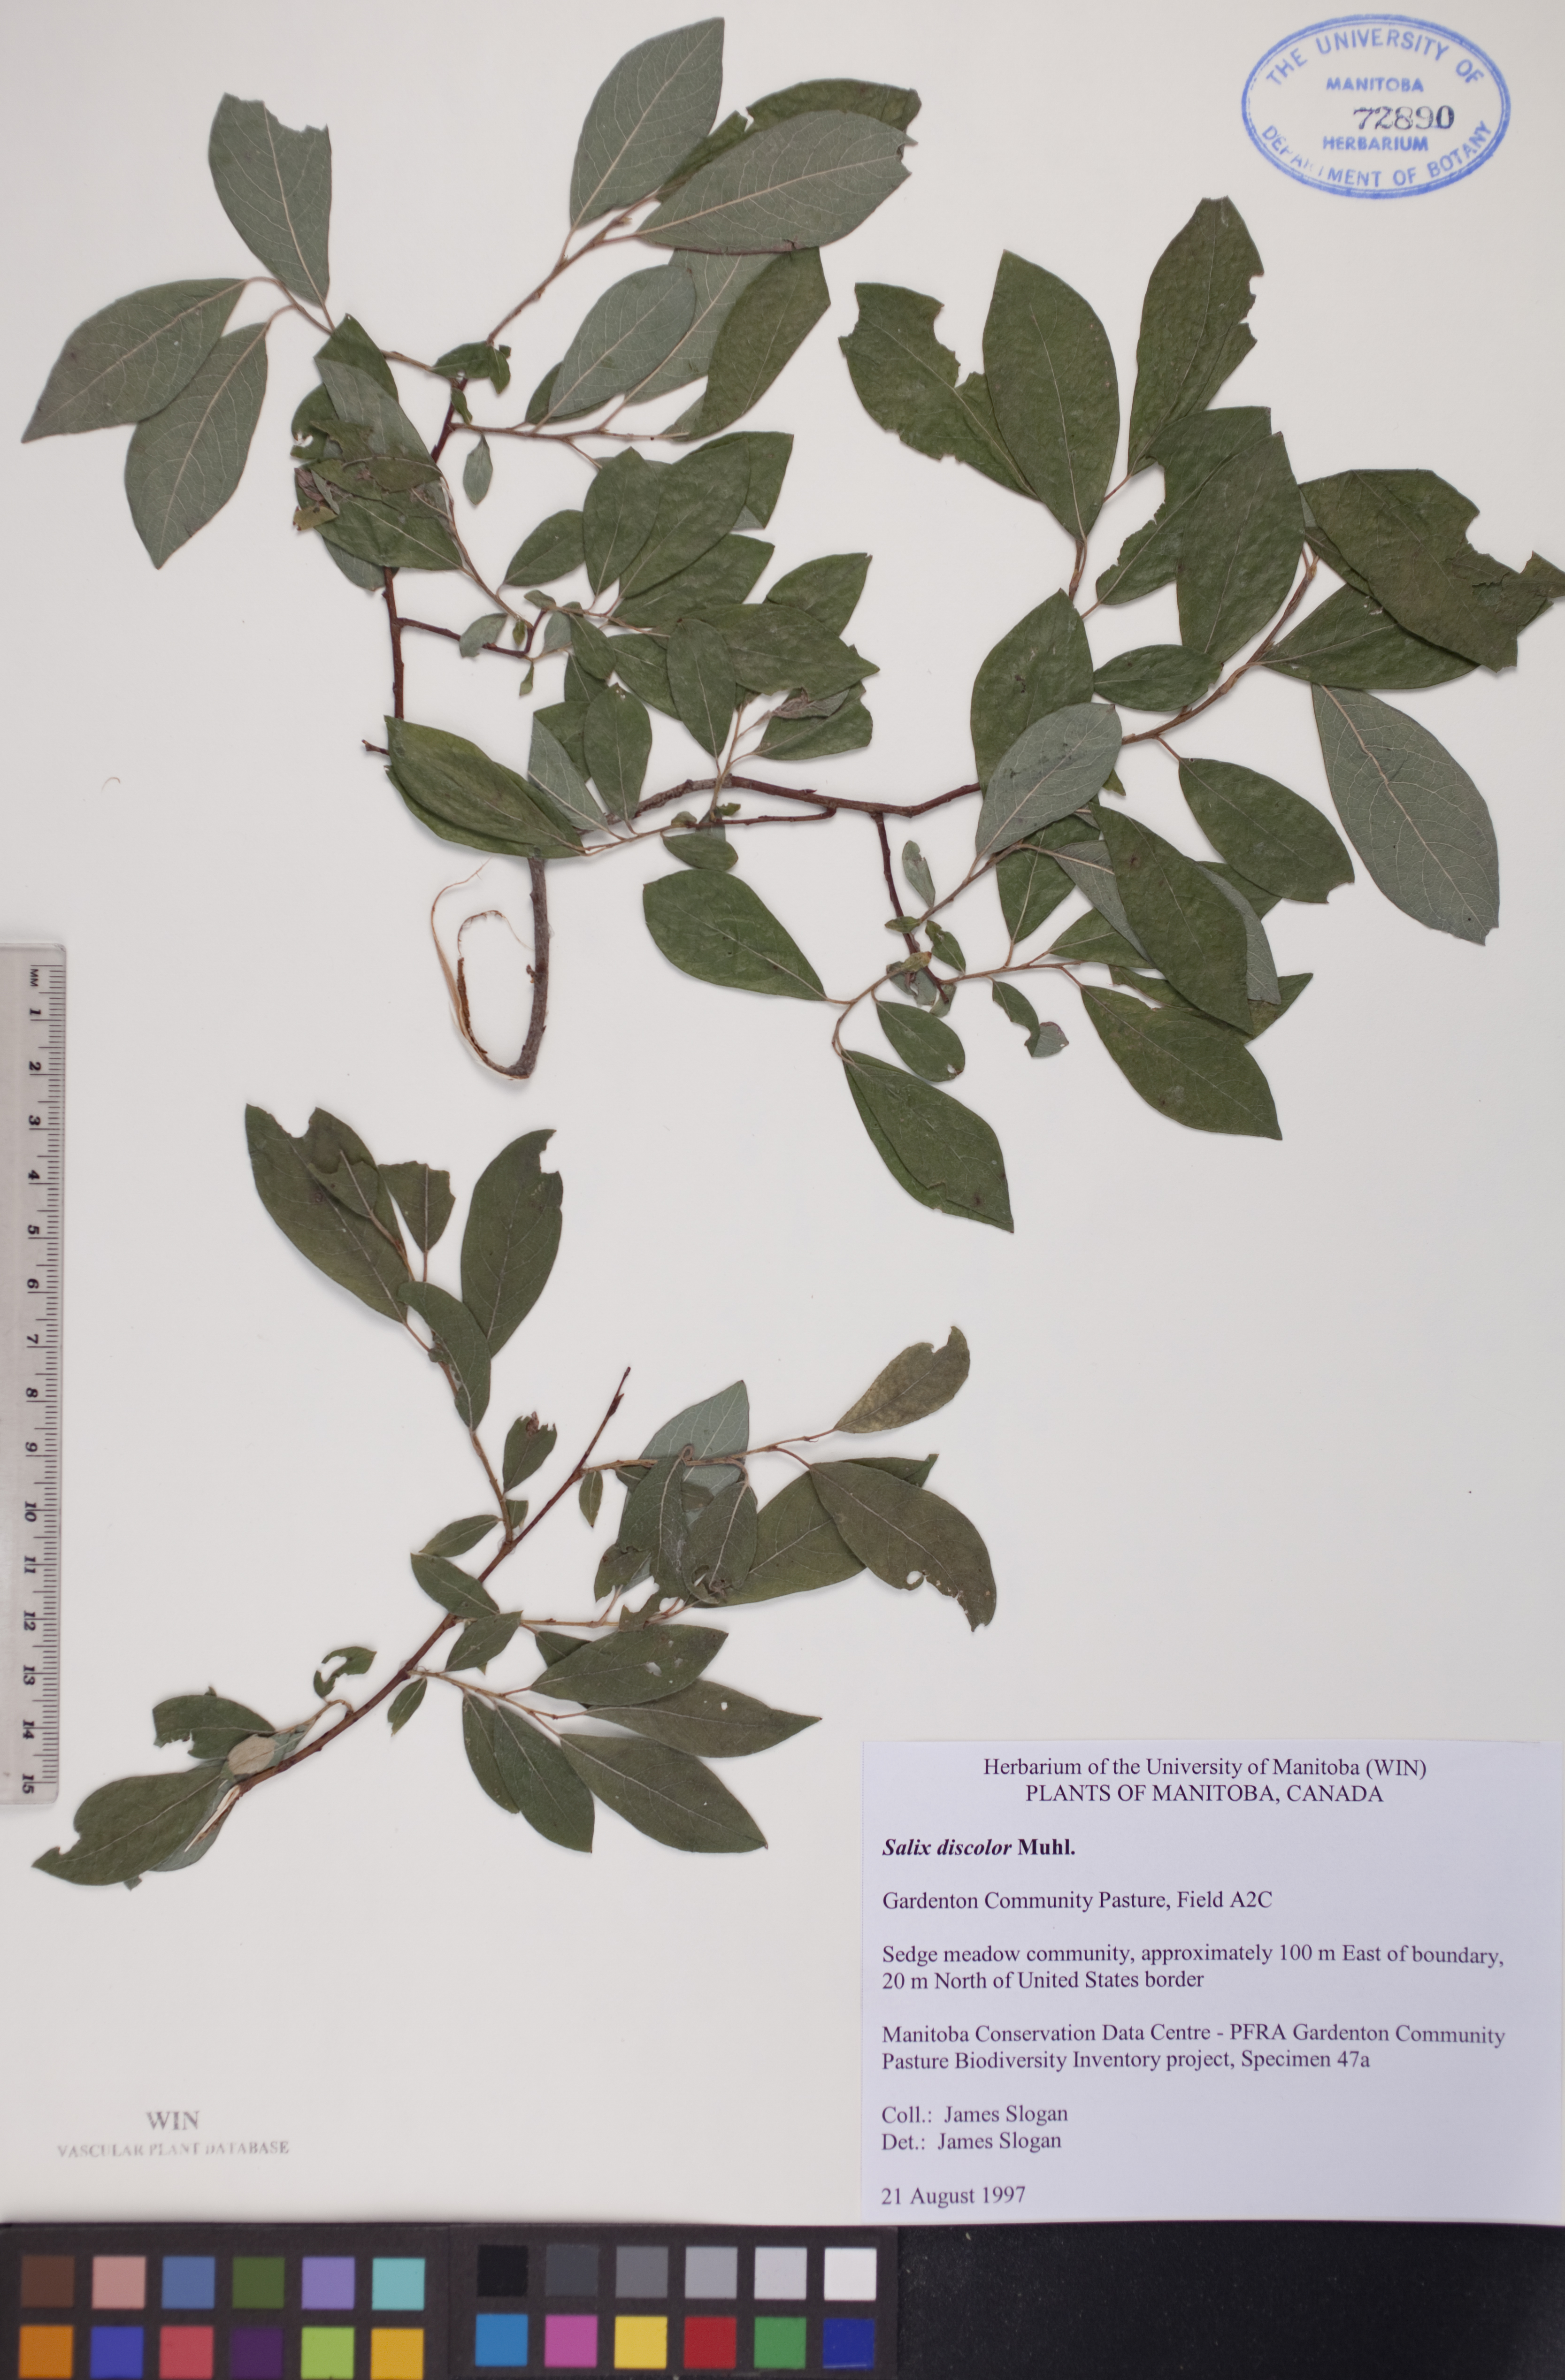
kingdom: Plantae
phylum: Tracheophyta
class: Magnoliopsida
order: Malpighiales
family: Salicaceae
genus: Salix
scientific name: Salix discolor
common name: Glaucous willow
